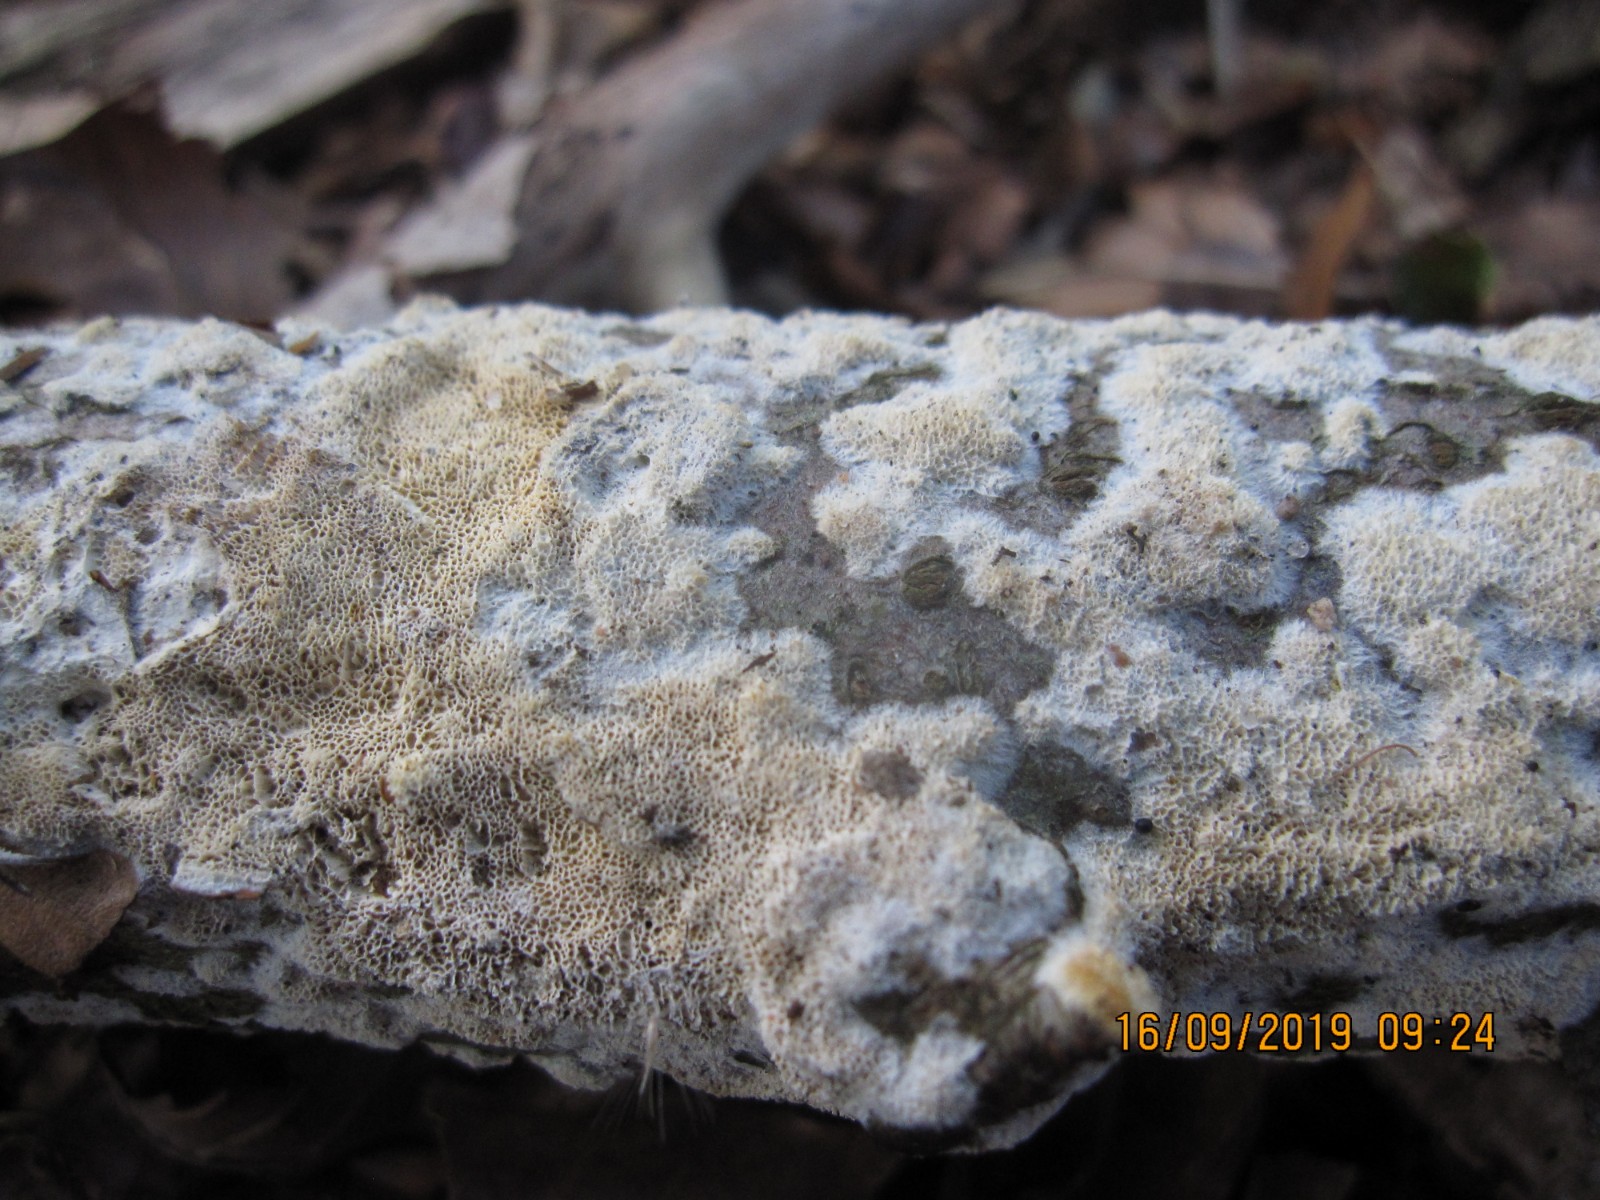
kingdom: Fungi
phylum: Basidiomycota
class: Agaricomycetes
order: Hymenochaetales
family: Schizoporaceae
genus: Xylodon
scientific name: Xylodon subtropicus
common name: labyrint-tandsvamp
